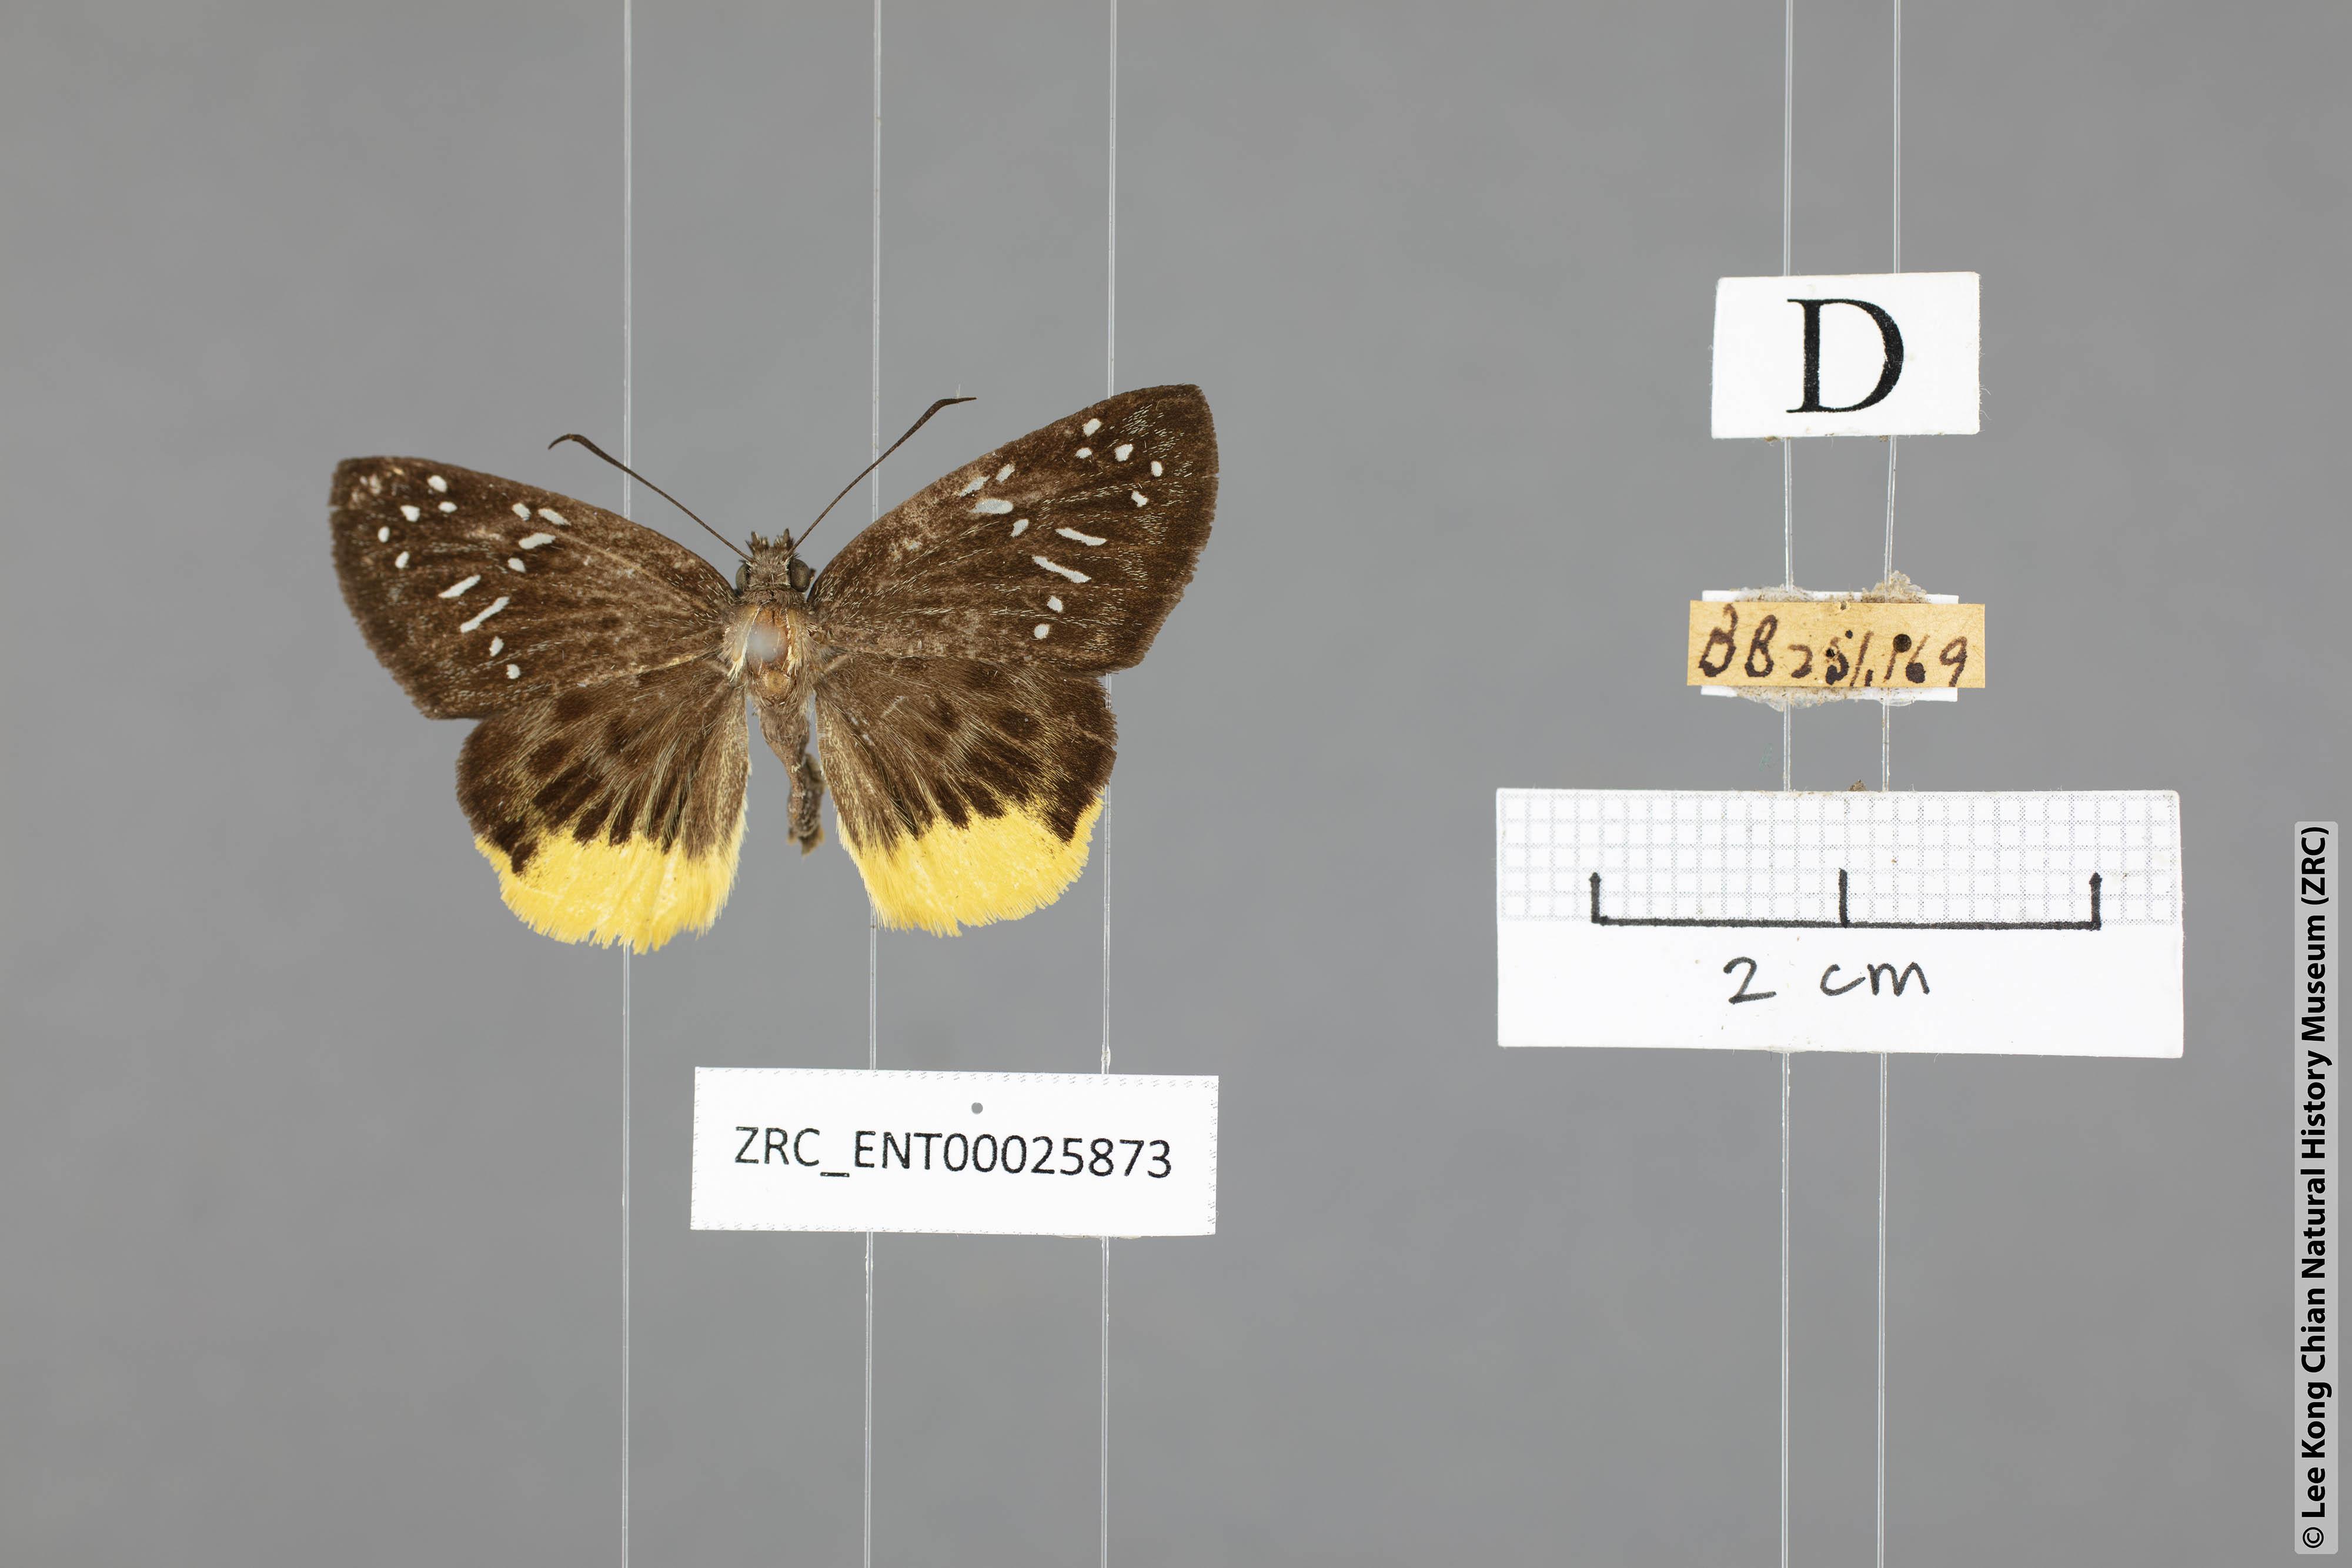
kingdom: Animalia
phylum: Arthropoda
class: Insecta
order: Lepidoptera
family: Hesperiidae
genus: Mooreana
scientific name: Mooreana trichoneura
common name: Yellow flat
